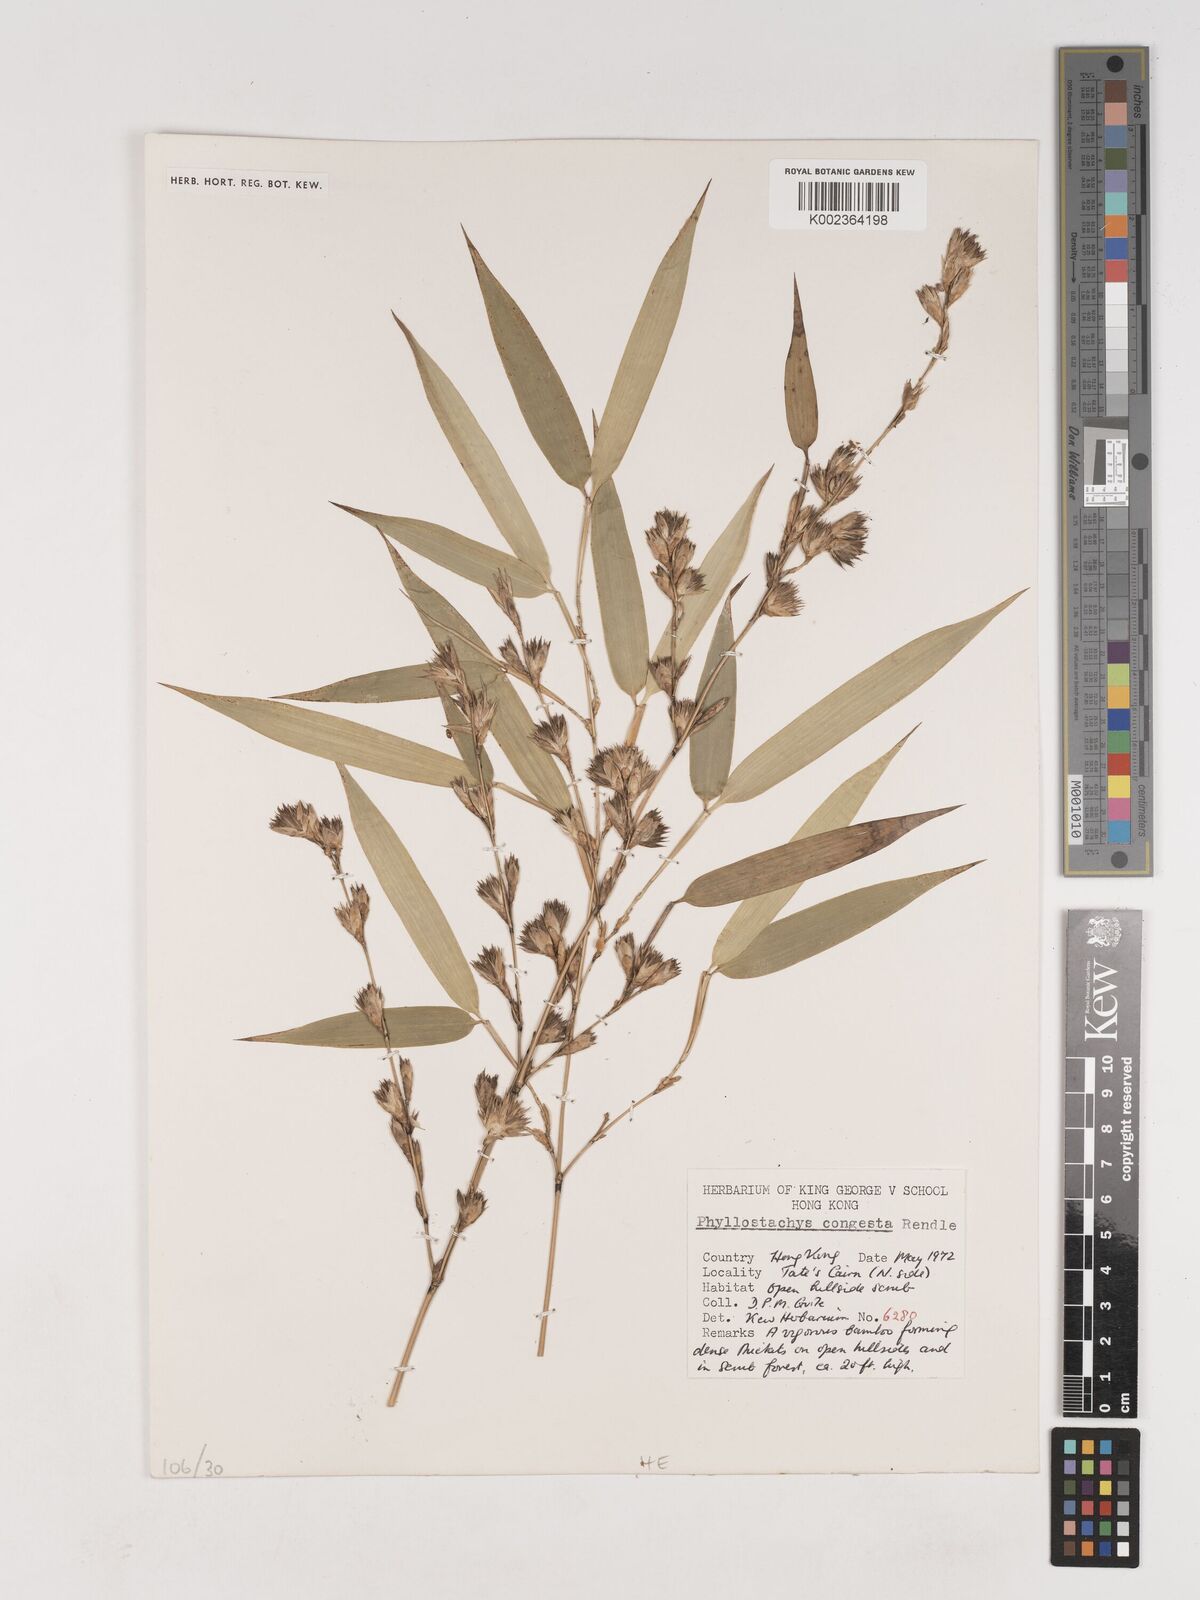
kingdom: Plantae
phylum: Tracheophyta
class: Liliopsida
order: Poales
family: Poaceae
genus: Phyllostachys
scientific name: Phyllostachys heteroclada
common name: Fishscale bamboo
